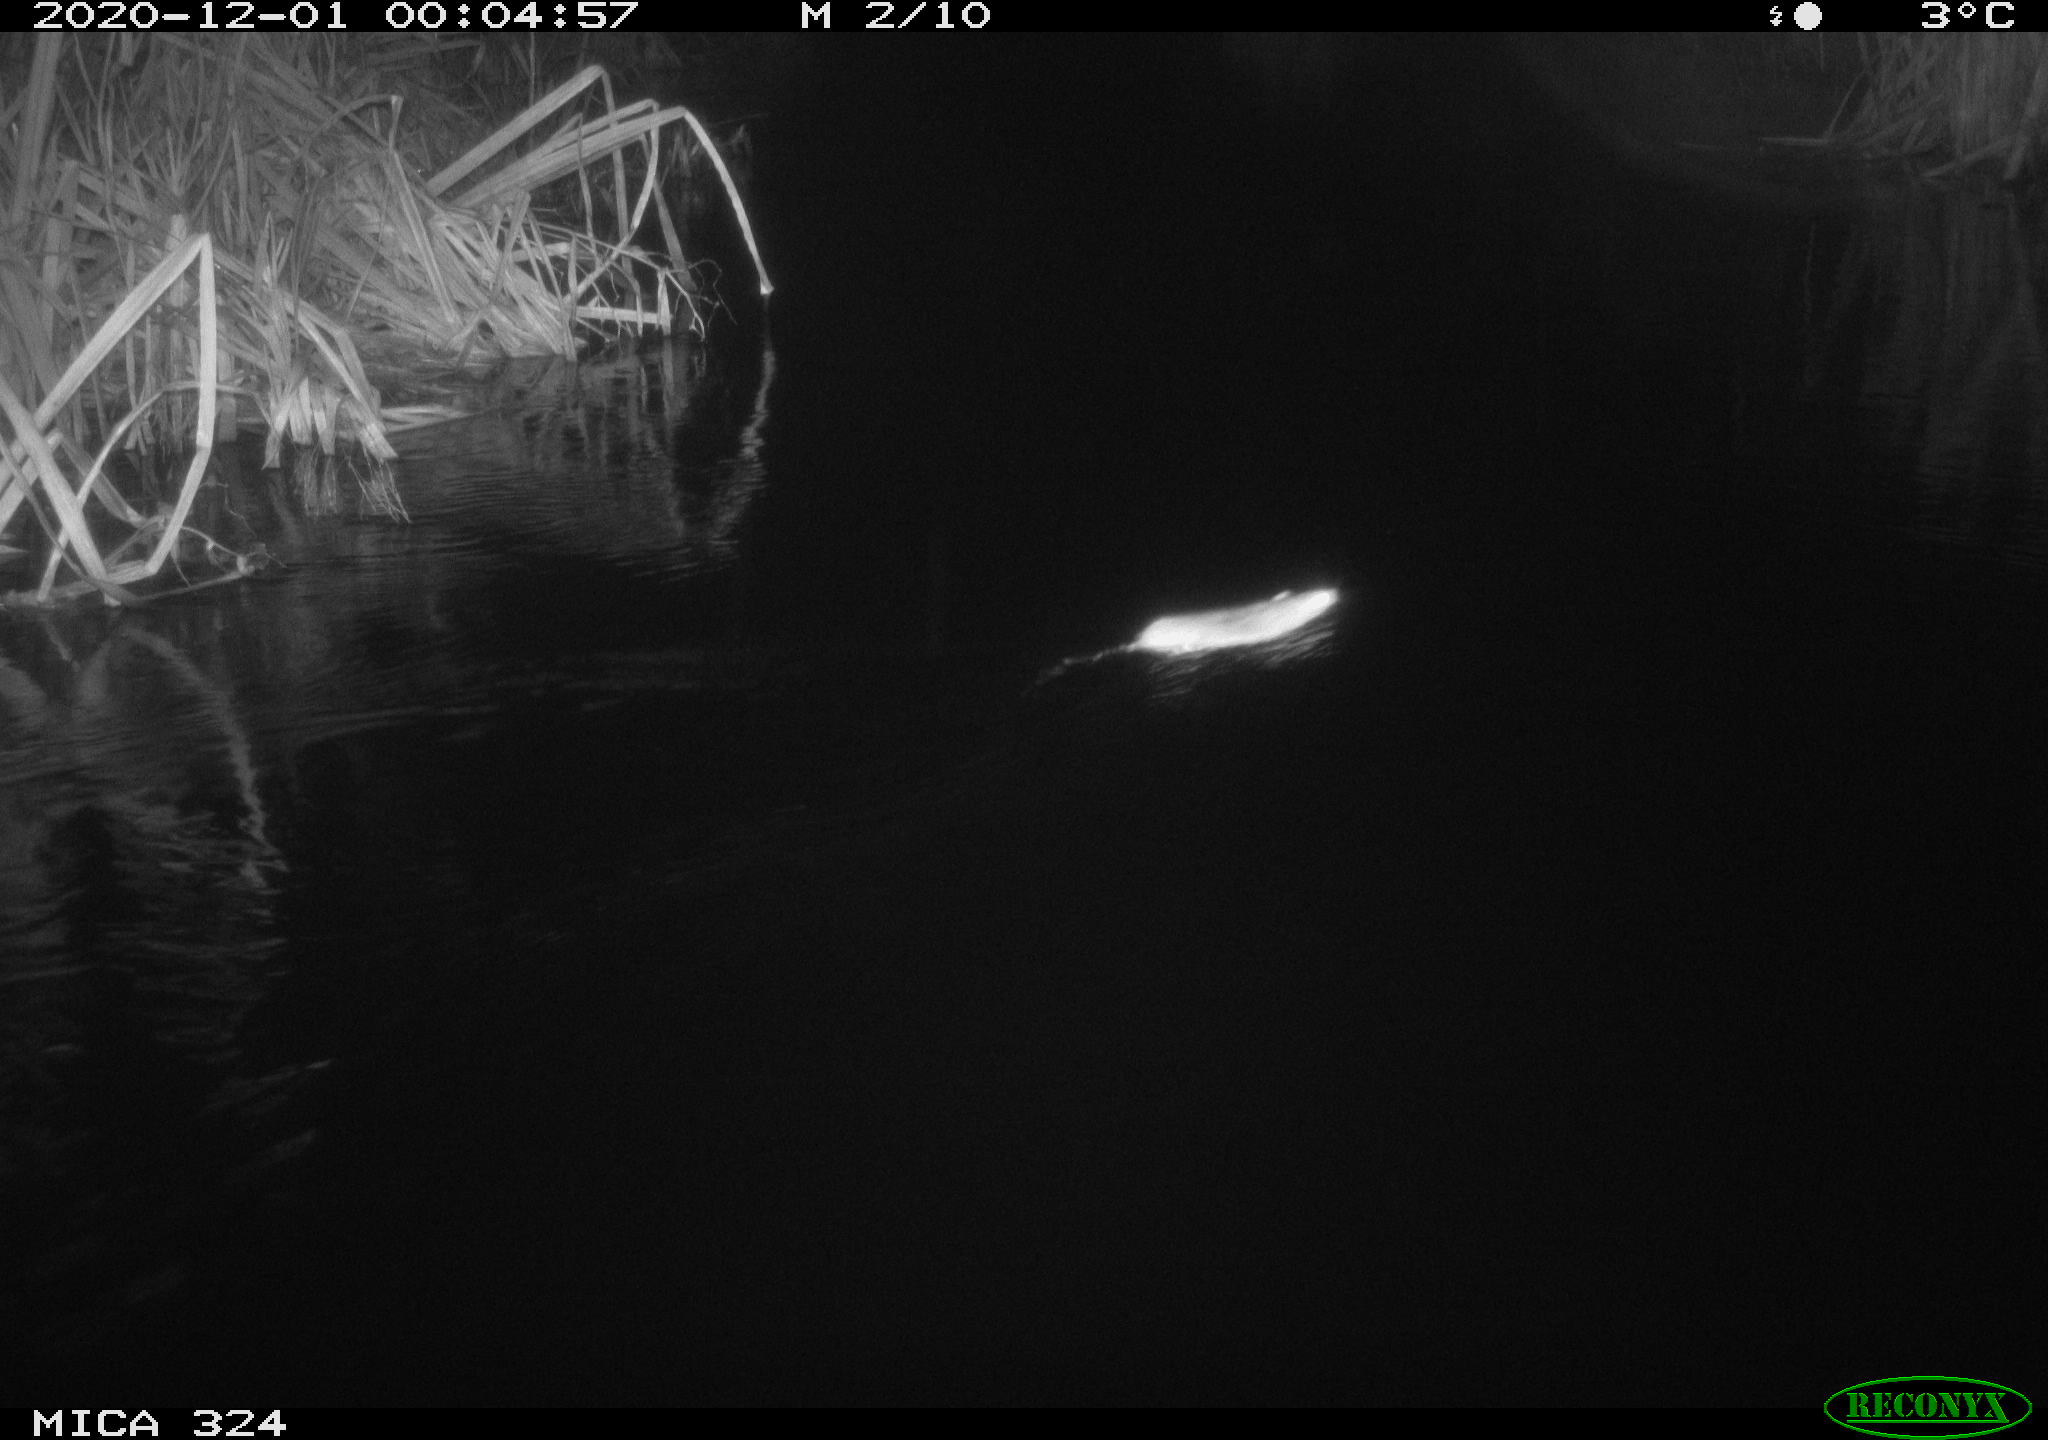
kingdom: Animalia
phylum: Chordata
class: Mammalia
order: Rodentia
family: Muridae
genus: Rattus
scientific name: Rattus norvegicus
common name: Brown rat
